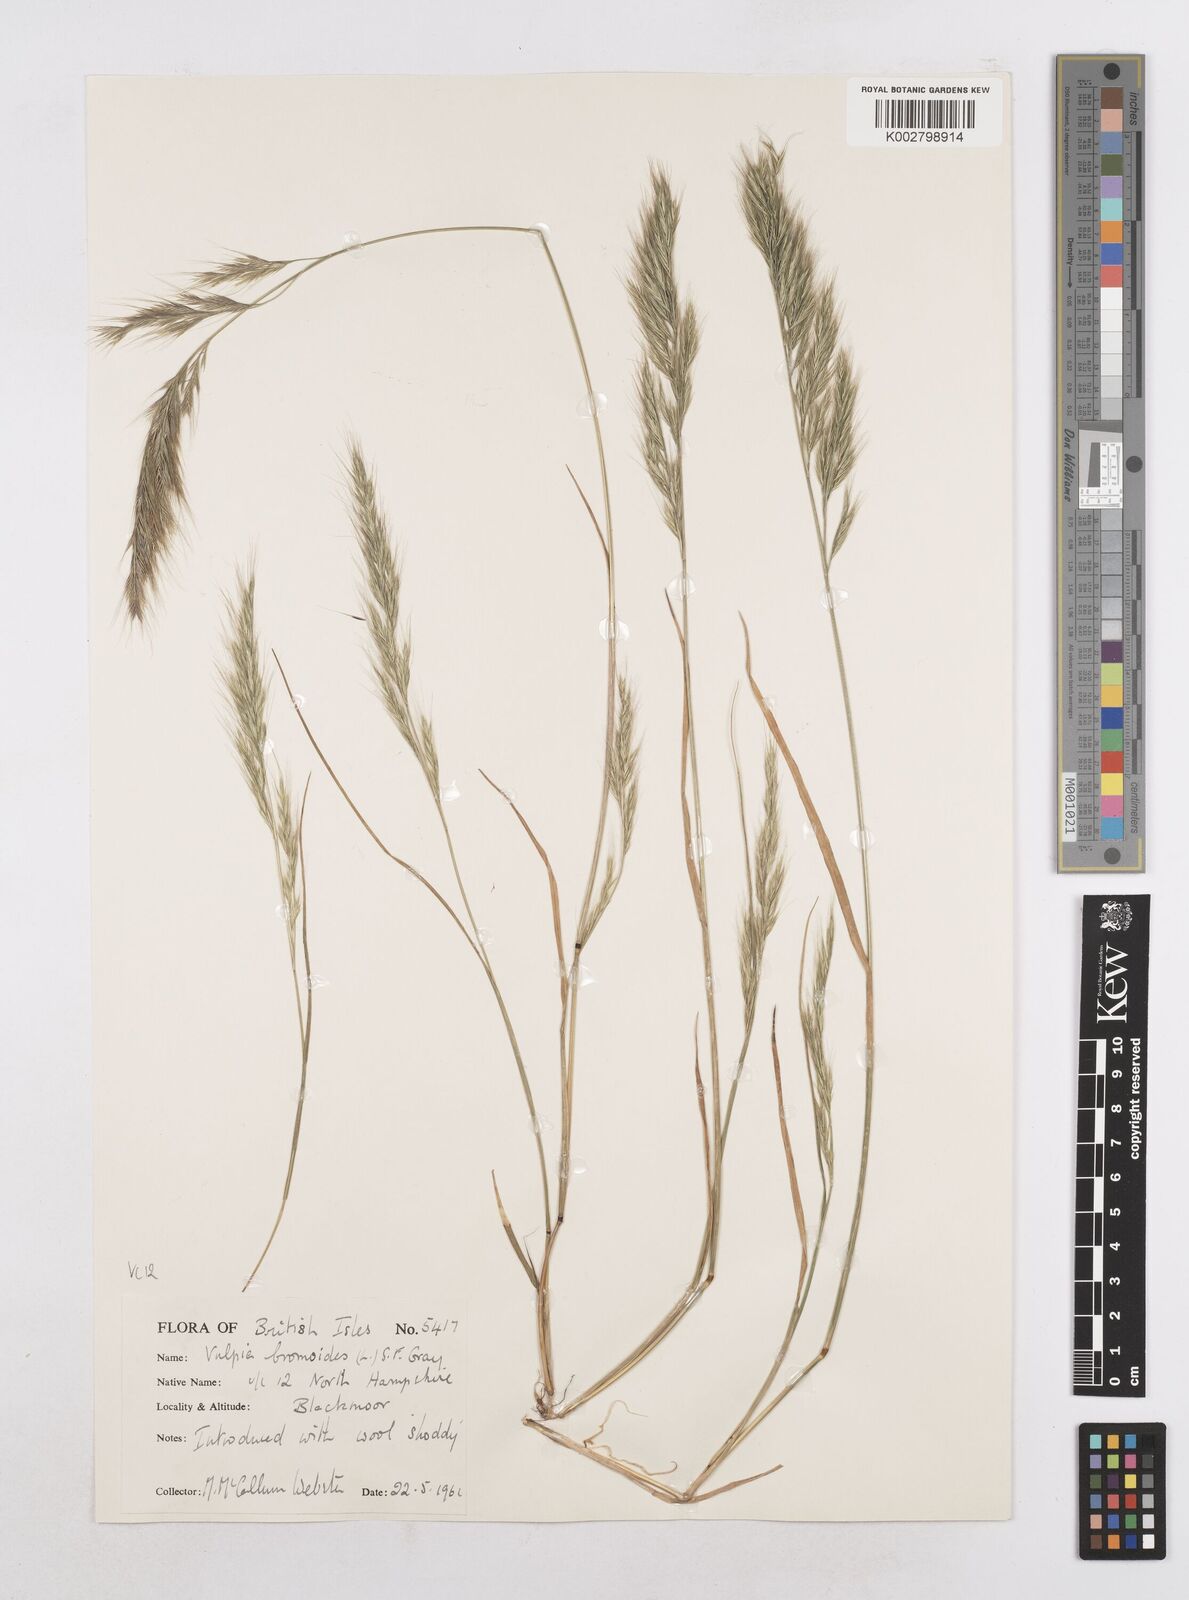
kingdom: Plantae
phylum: Tracheophyta
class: Liliopsida
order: Poales
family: Poaceae
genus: Festuca
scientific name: Festuca bromoides
